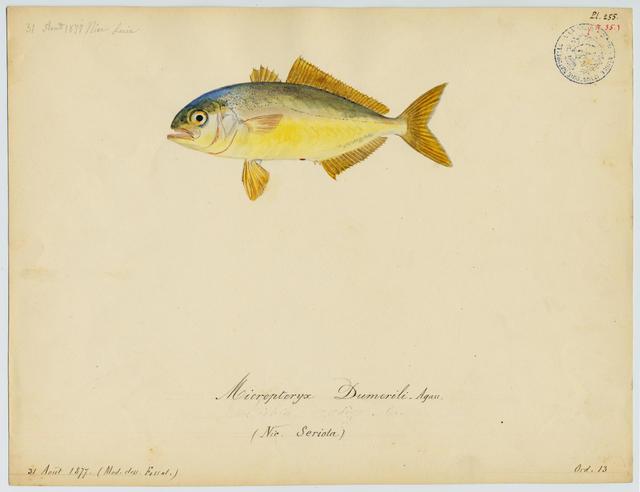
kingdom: Animalia
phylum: Chordata
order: Perciformes
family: Carangidae
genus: Seriola
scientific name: Seriola dumerili
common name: Greater amberjack
